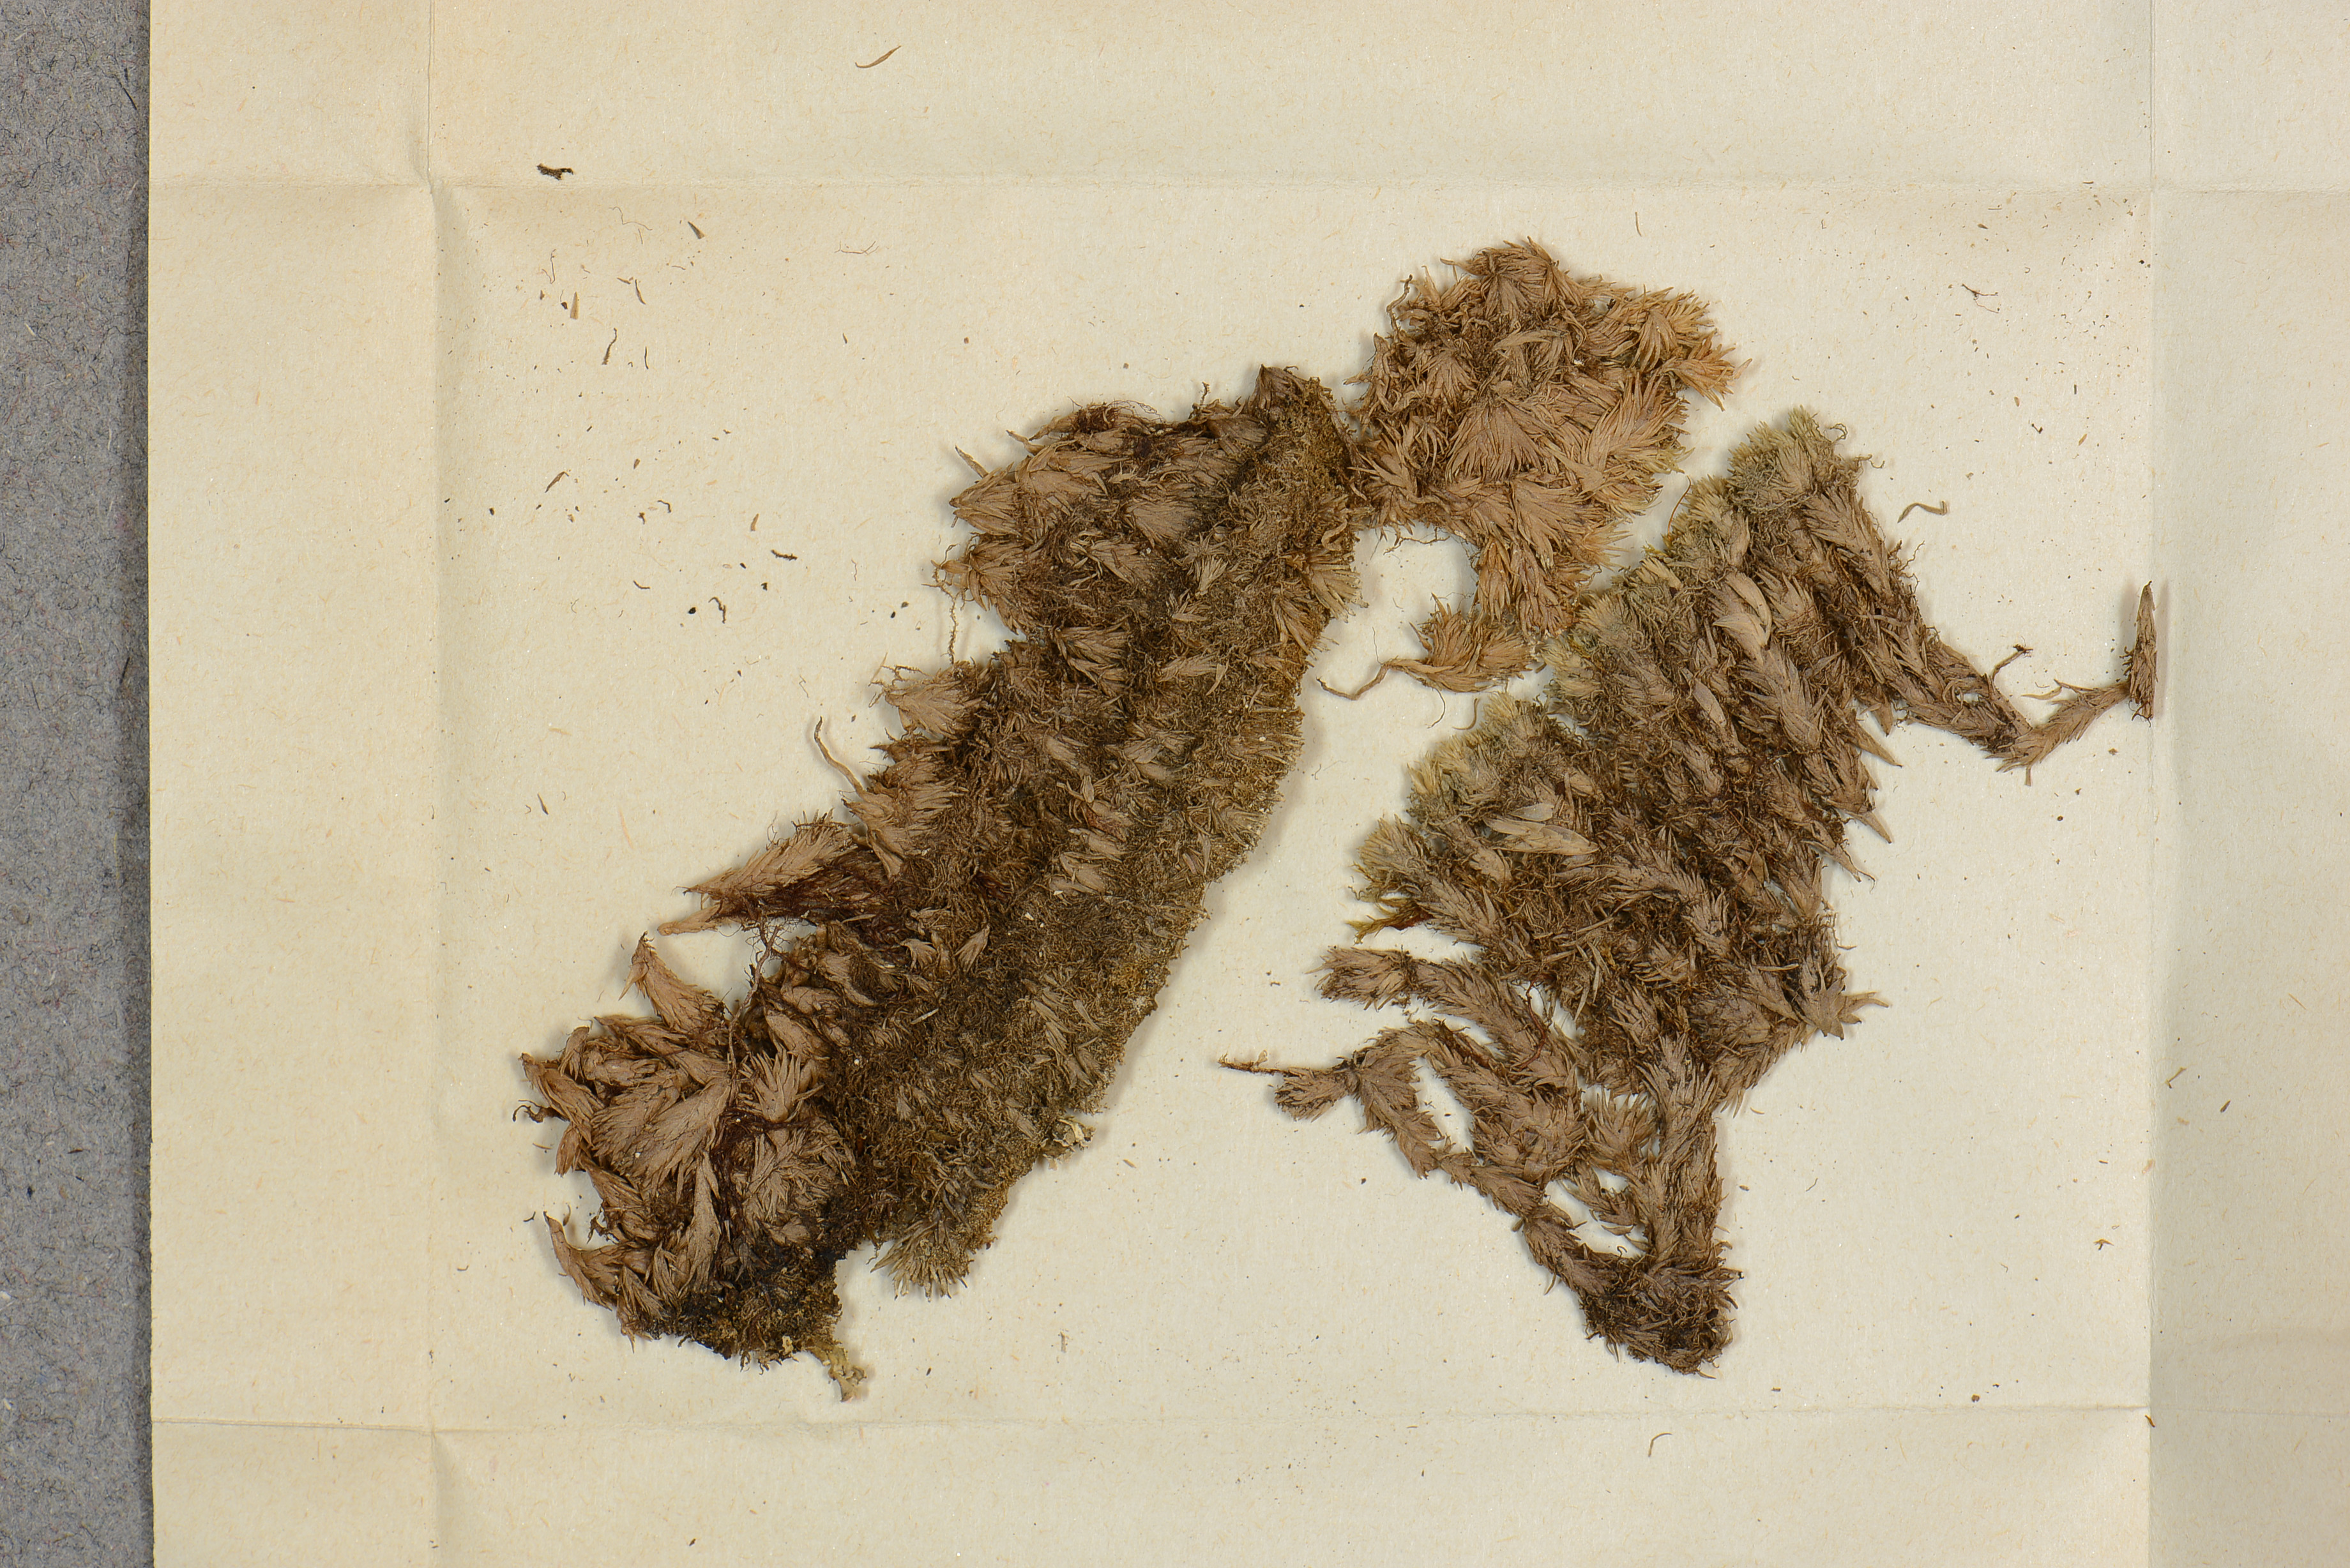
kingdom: Plantae
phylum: Marchantiophyta
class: Jungermanniopsida
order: Jungermanniales
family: Cephaloziaceae
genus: Fuscocephaloziopsis
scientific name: Fuscocephaloziopsis connivens
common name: Forcipated pincerwort
